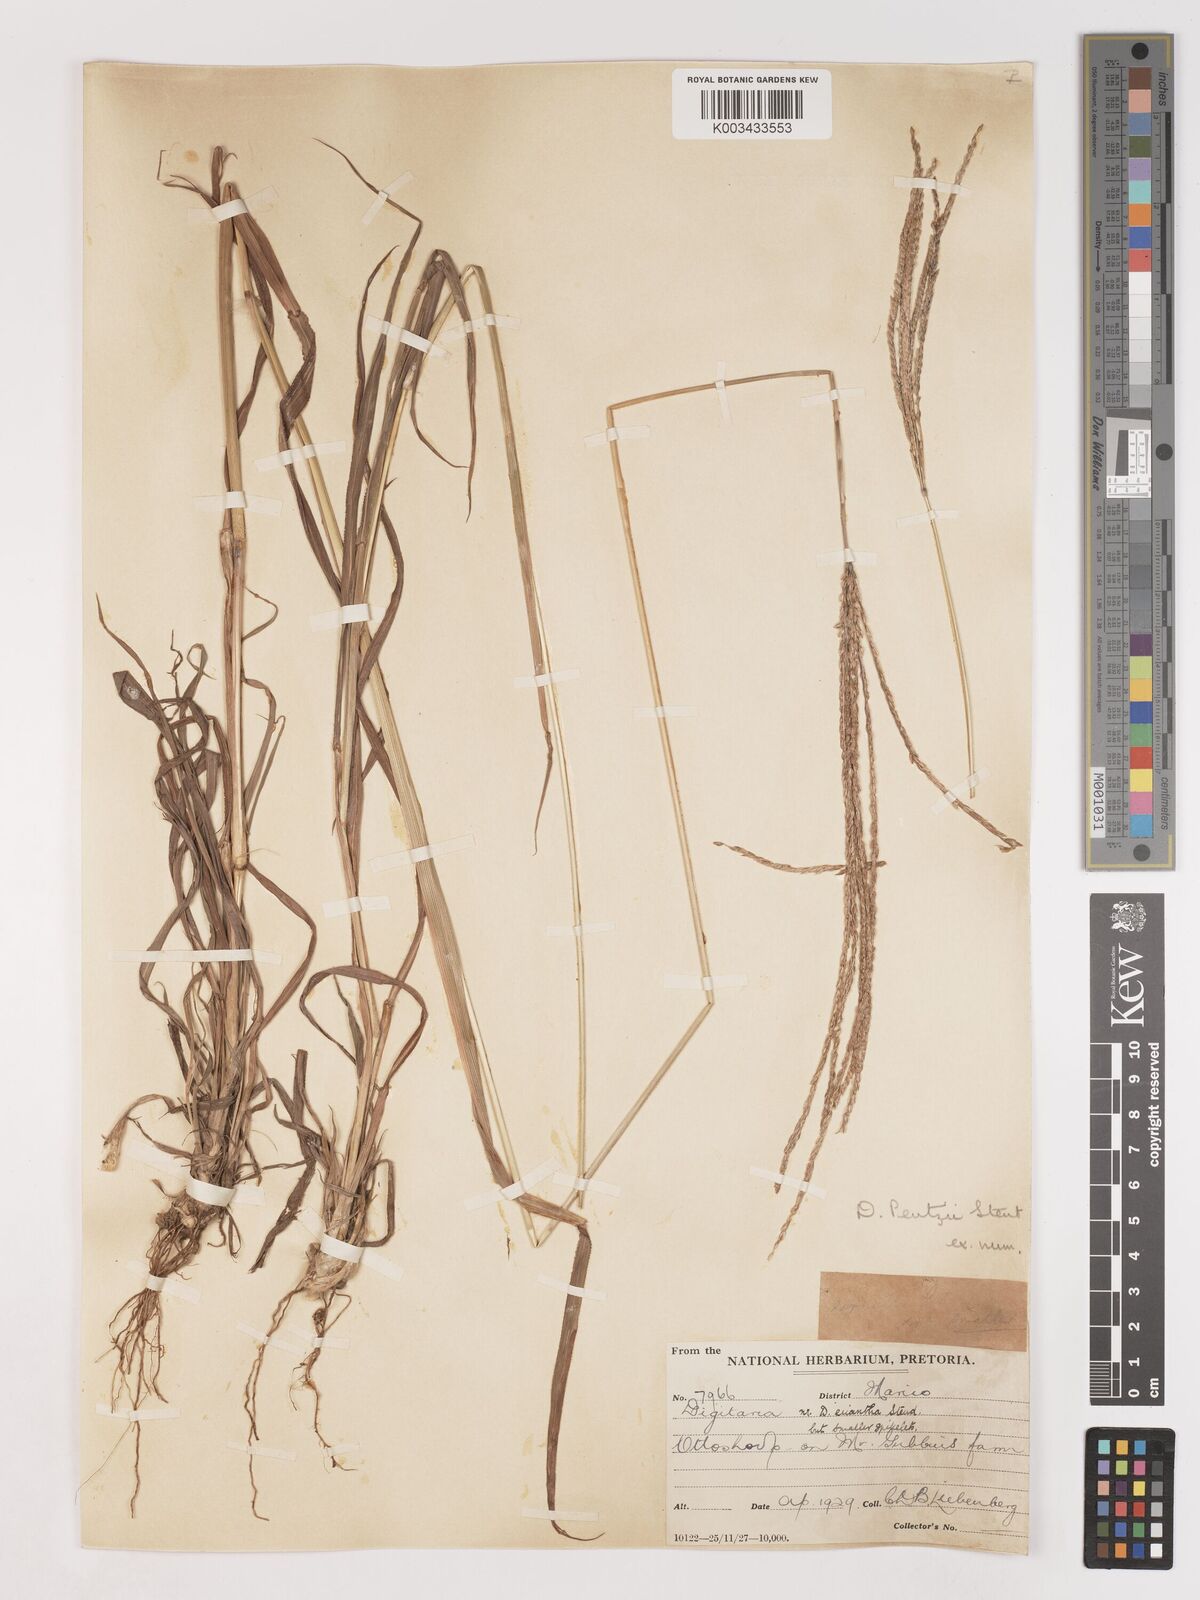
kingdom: Plantae
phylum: Tracheophyta
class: Liliopsida
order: Poales
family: Poaceae
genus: Digitaria
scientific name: Digitaria eriantha
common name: Digitgrass
